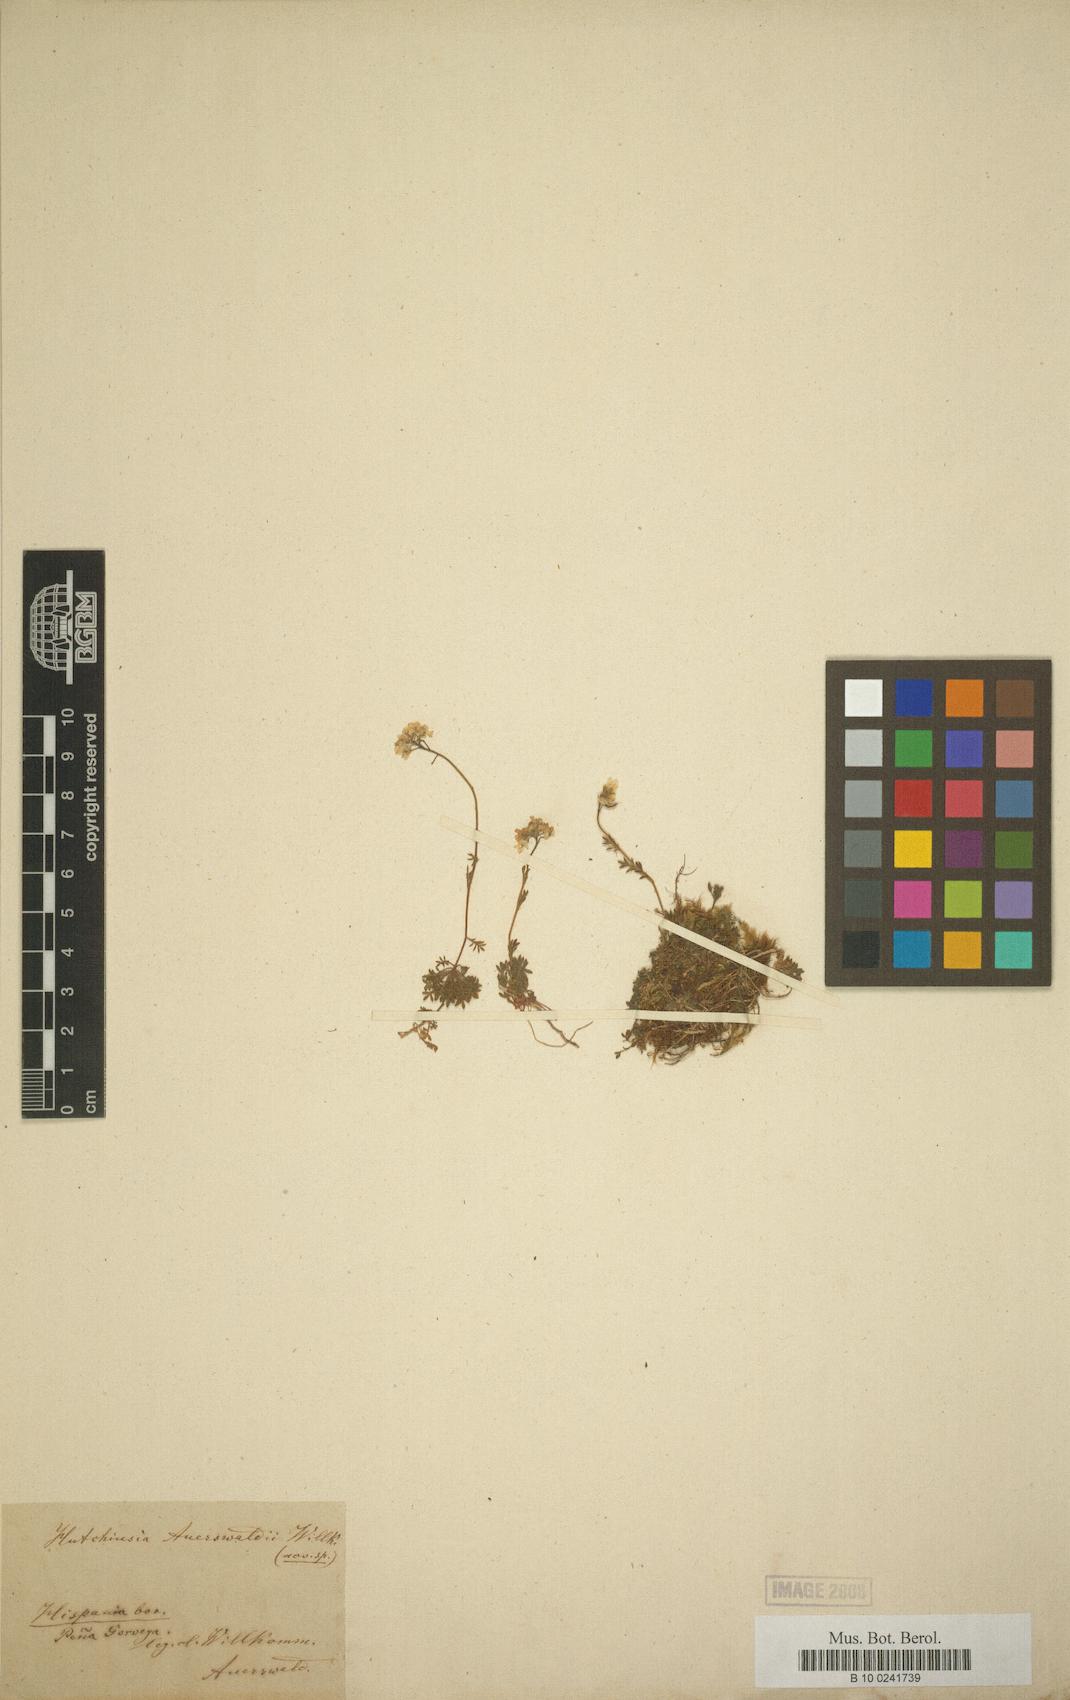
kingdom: Plantae
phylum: Tracheophyta
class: Magnoliopsida
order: Brassicales
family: Brassicaceae
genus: Hornungia
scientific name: Hornungia alpina
